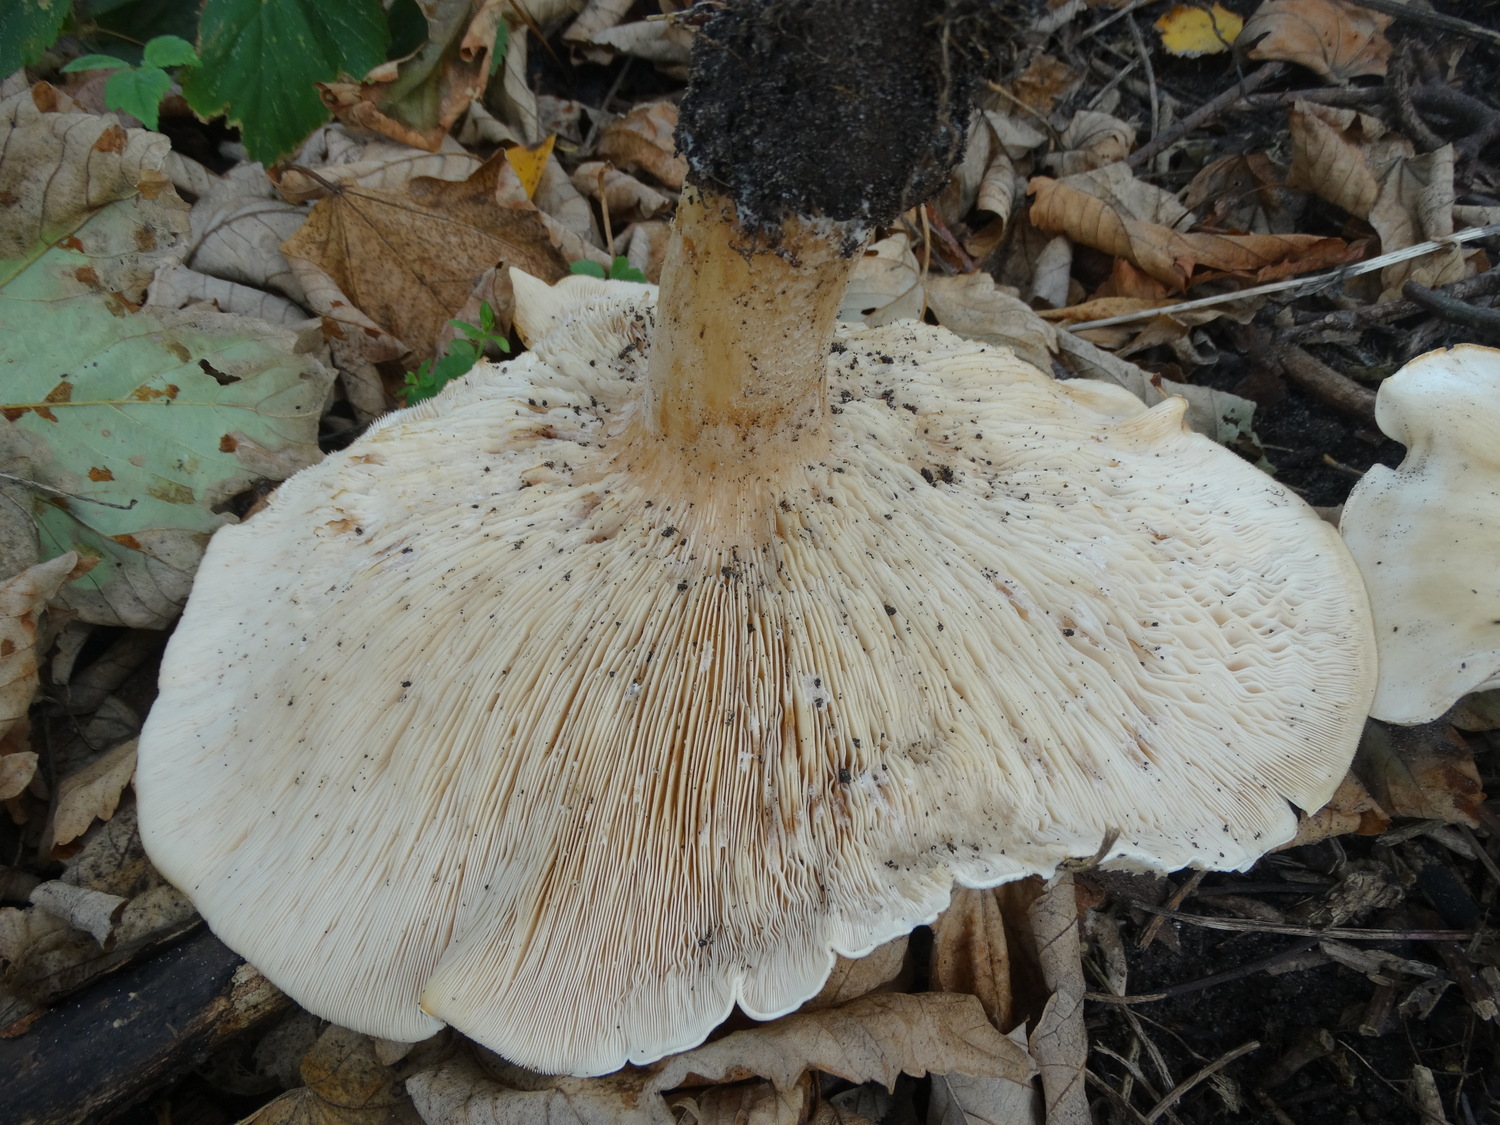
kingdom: Fungi
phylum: Basidiomycota
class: Agaricomycetes
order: Agaricales
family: Tricholomataceae
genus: Aspropaxillus
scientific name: Aspropaxillus giganteus
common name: kæmpe-tragtridderhat
